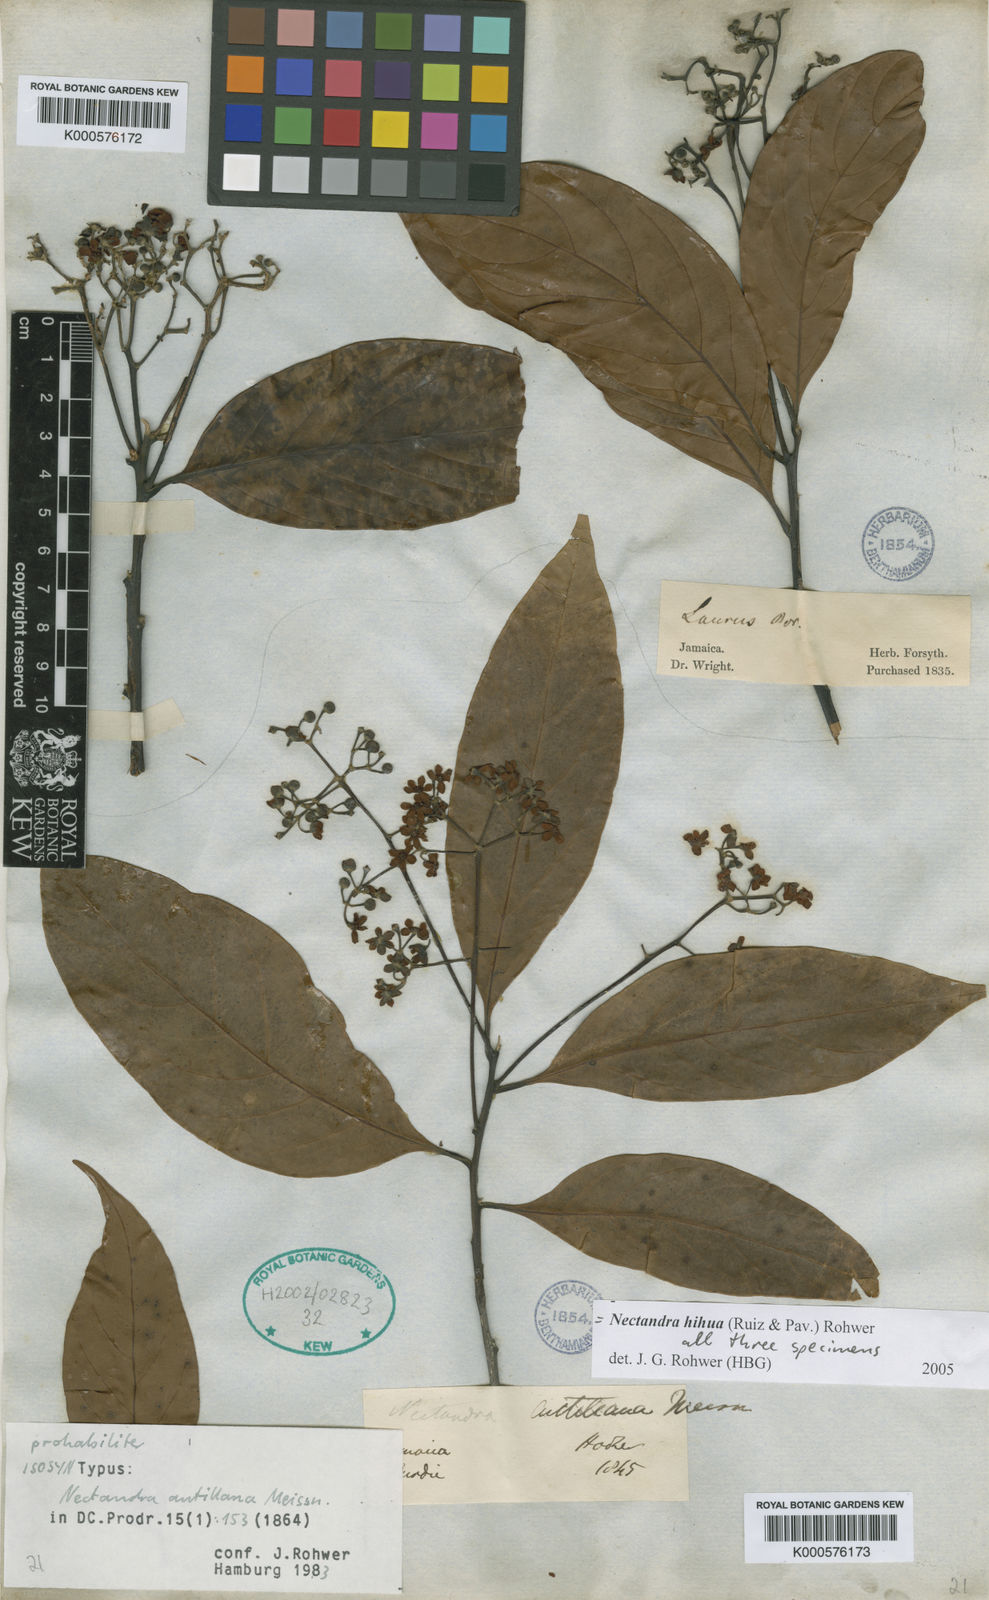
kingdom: Plantae
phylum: Tracheophyta
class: Magnoliopsida
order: Laurales
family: Lauraceae
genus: Nectandra
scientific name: Nectandra hihua
